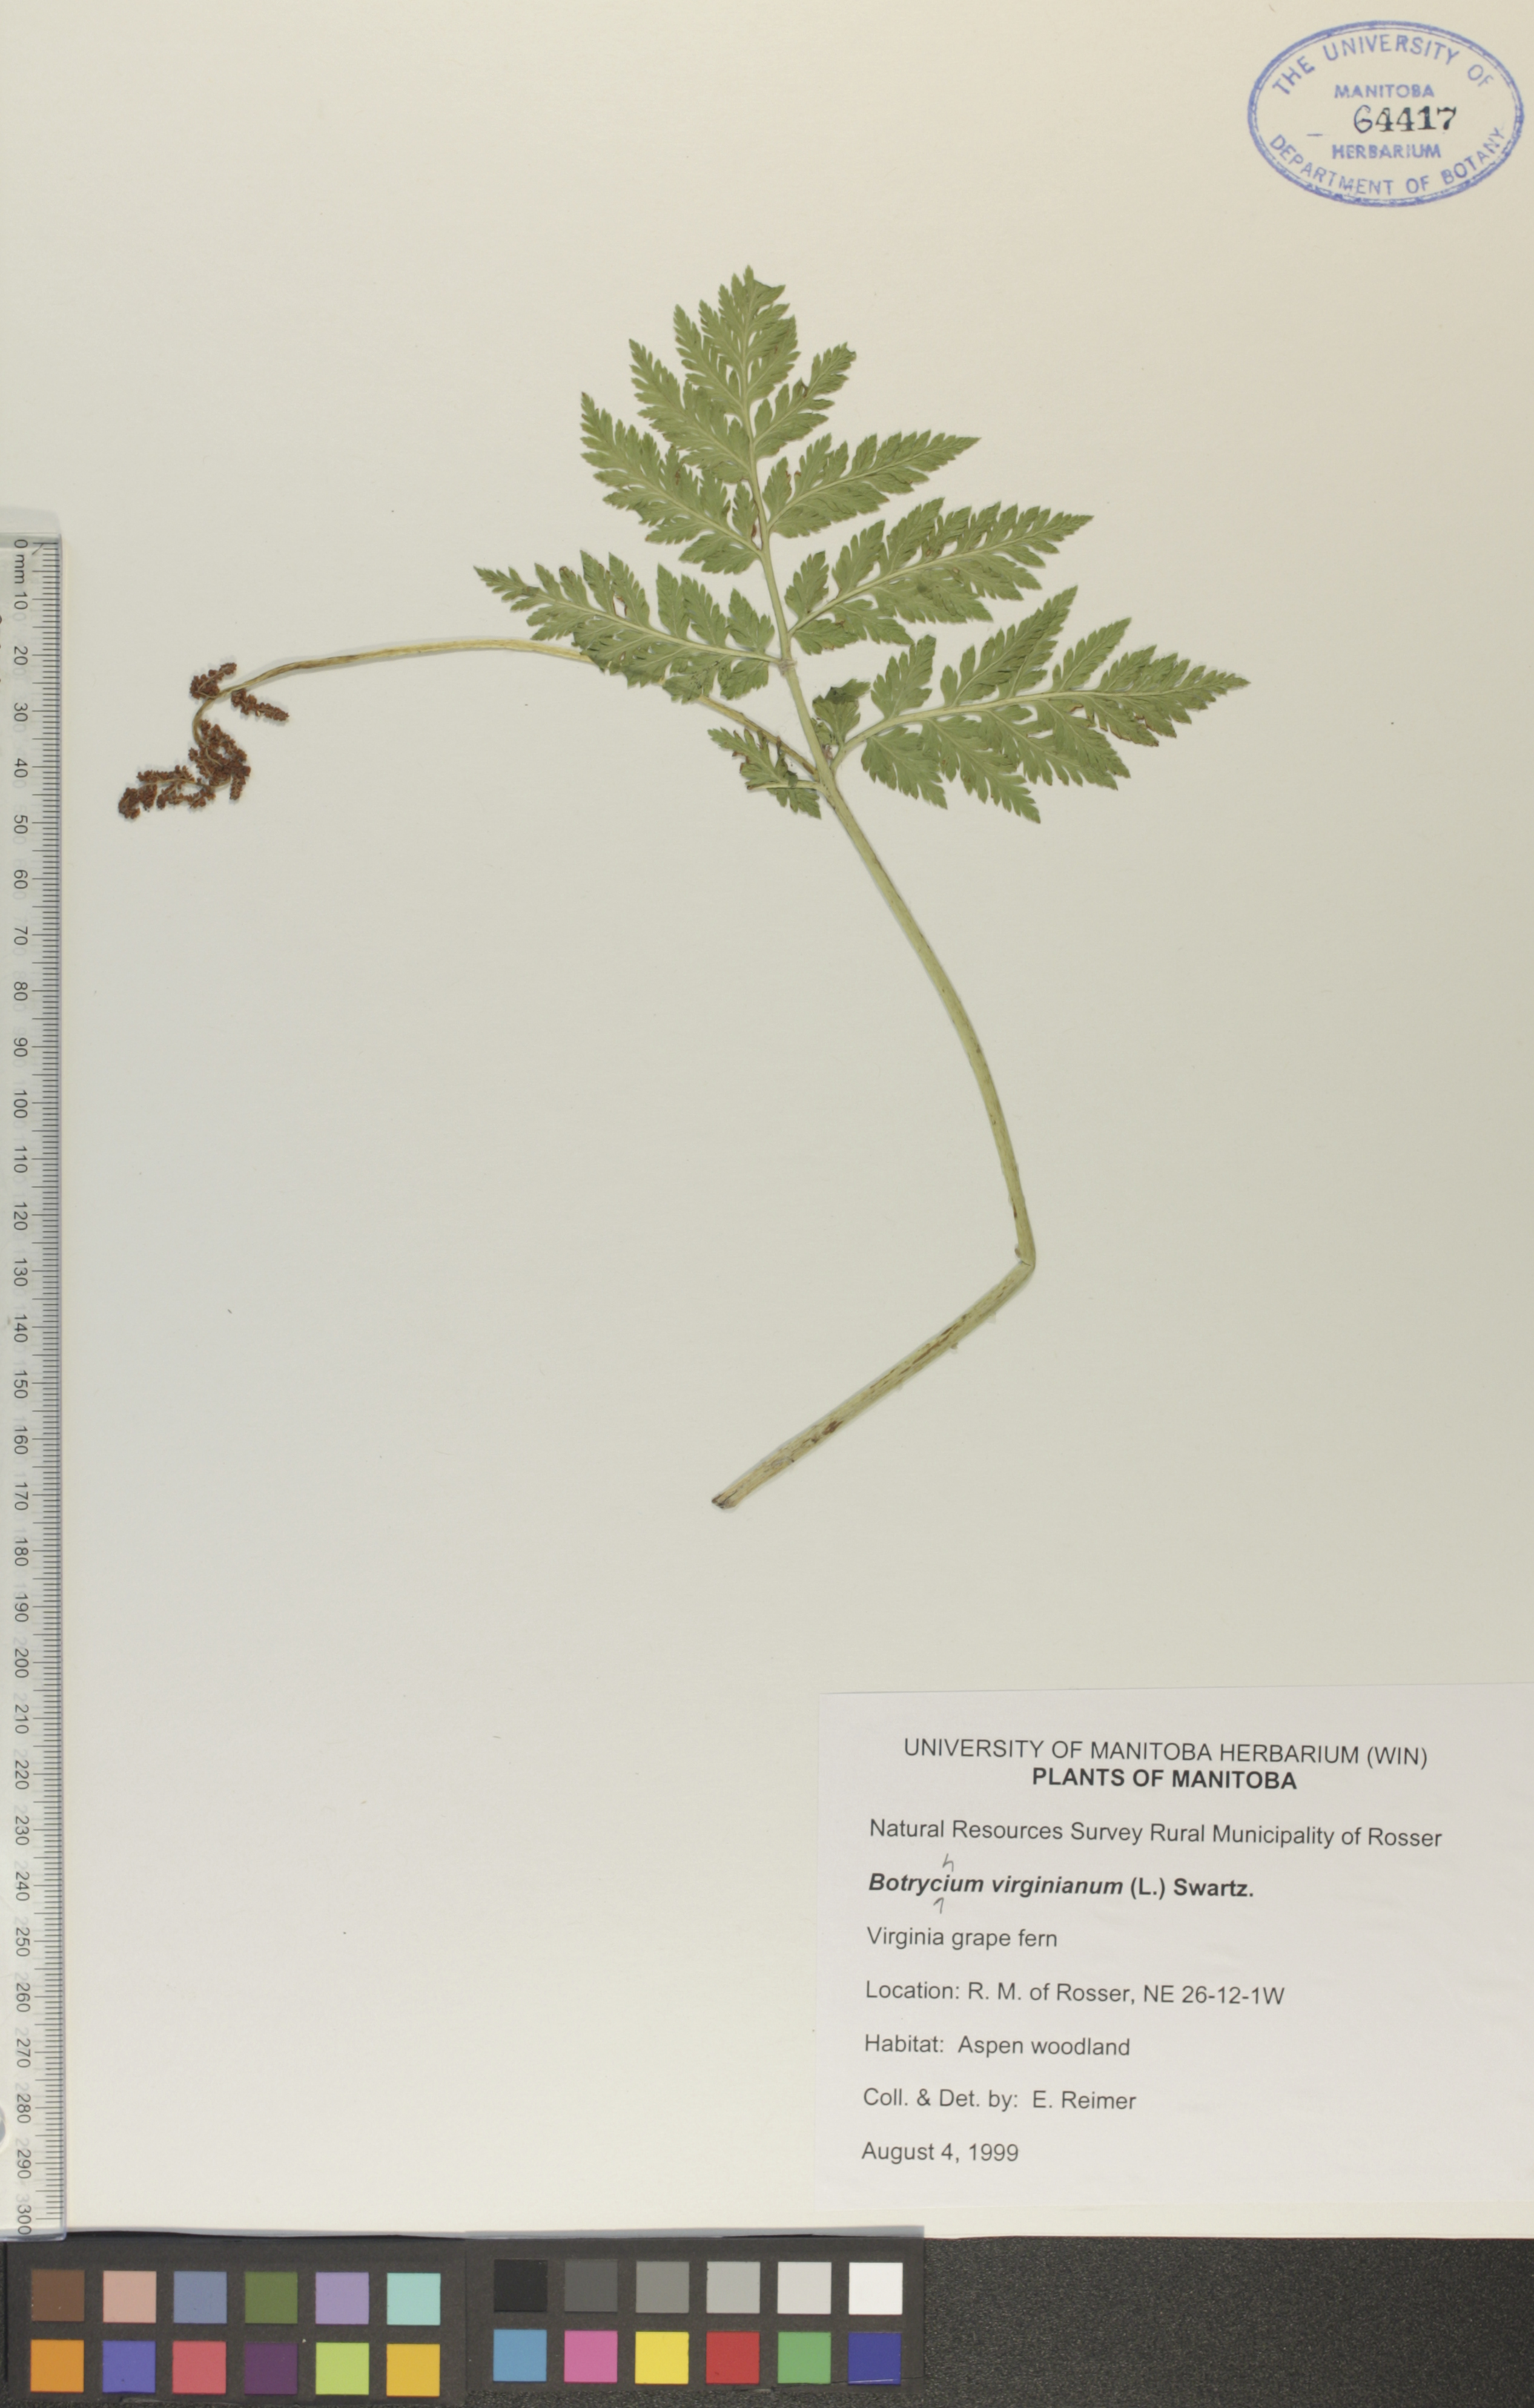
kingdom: Plantae
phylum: Tracheophyta
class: Polypodiopsida
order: Ophioglossales
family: Ophioglossaceae
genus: Botrypus
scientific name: Botrypus virginianus
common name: Common grapefern
